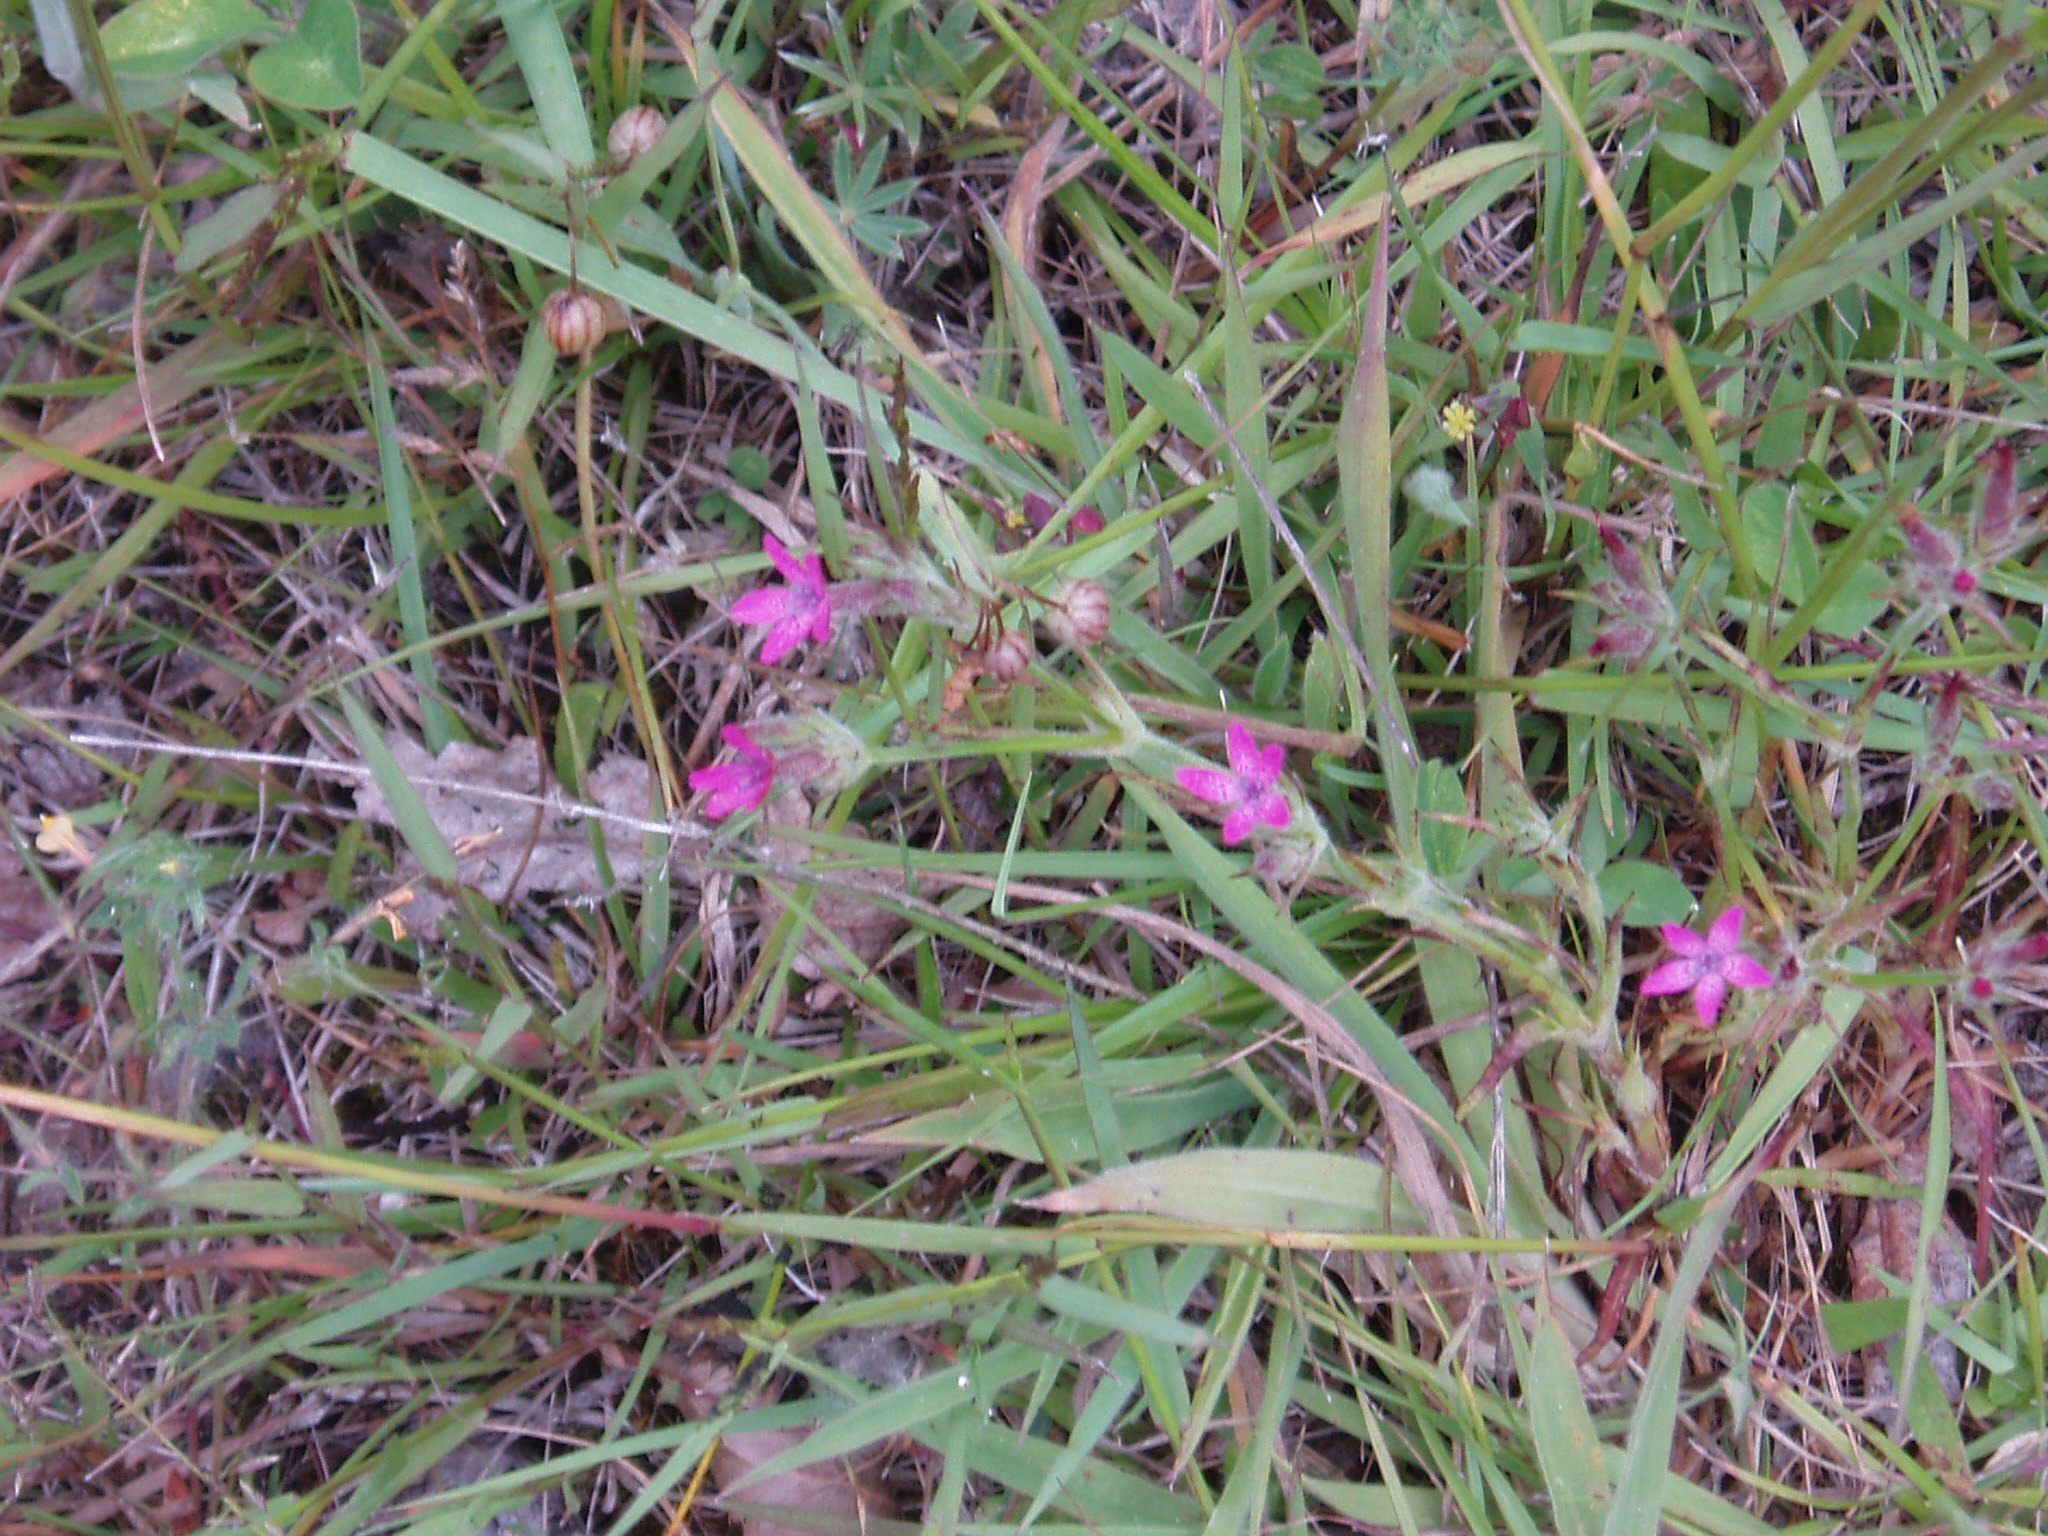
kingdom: Plantae
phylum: Tracheophyta
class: Magnoliopsida
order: Caryophyllales
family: Caryophyllaceae
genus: Dianthus
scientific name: Dianthus armeria
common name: Deptford pink
